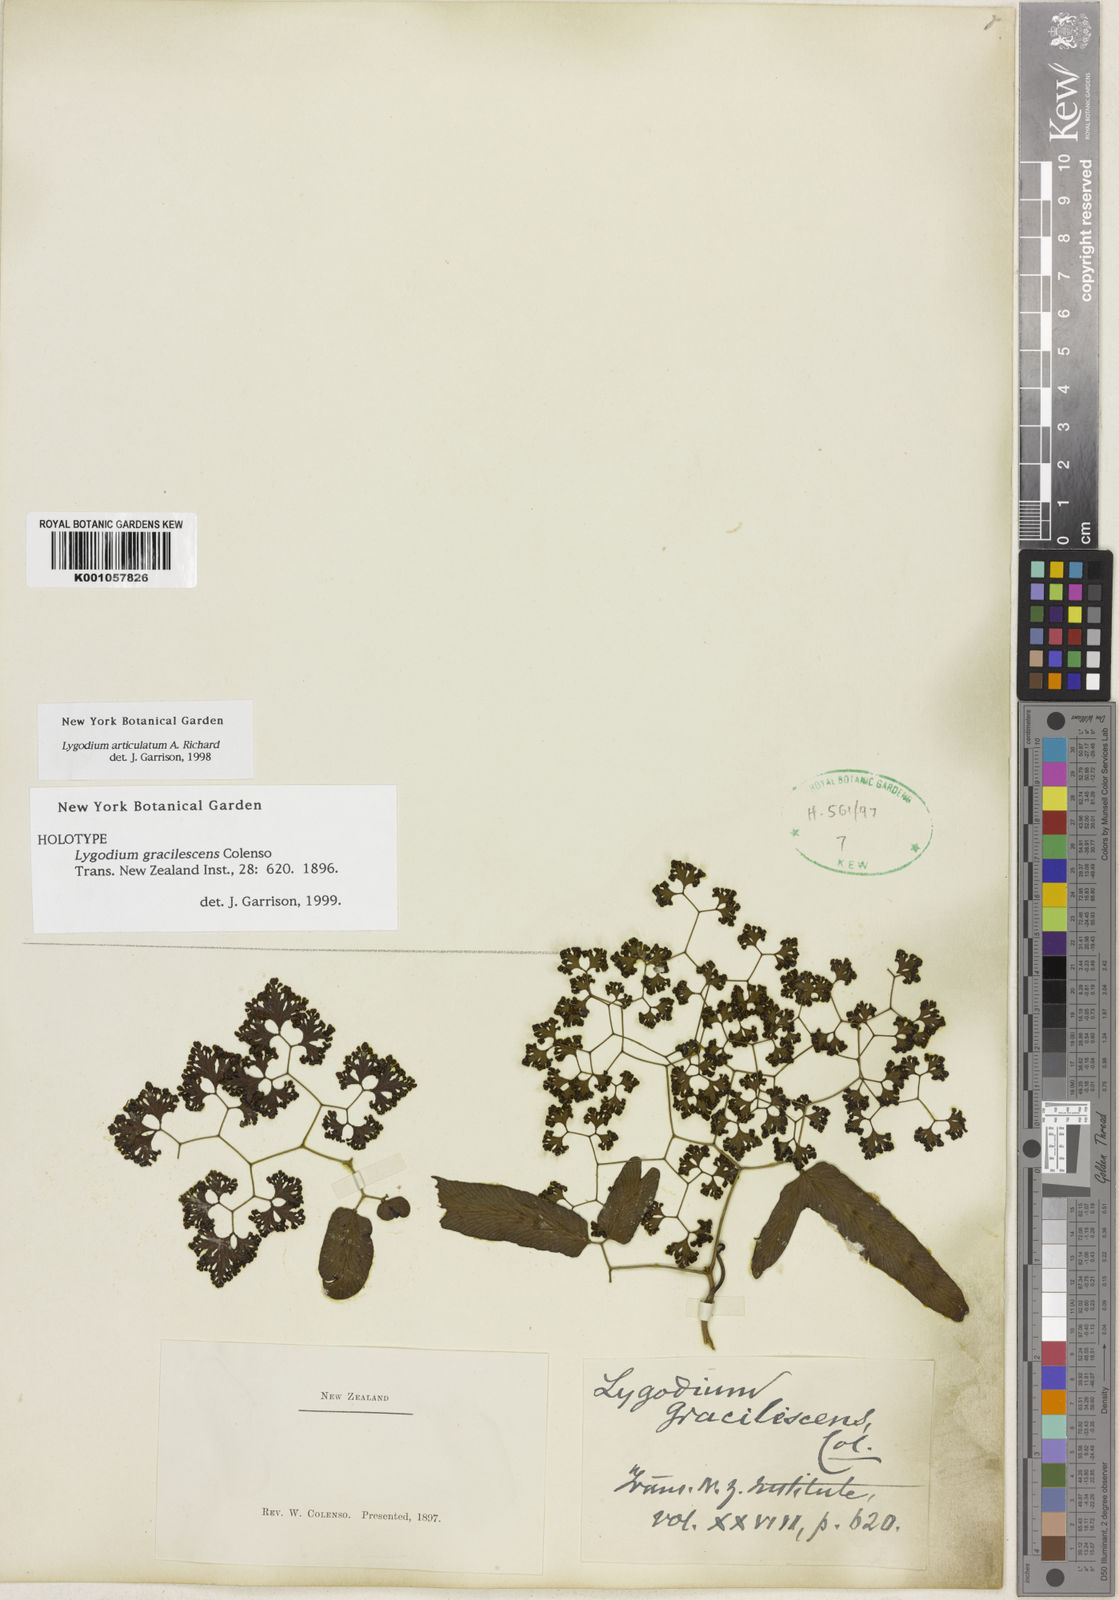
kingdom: Plantae
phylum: Tracheophyta
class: Polypodiopsida
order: Schizaeales
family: Lygodiaceae
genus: Lygodium
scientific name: Lygodium reticulatum
